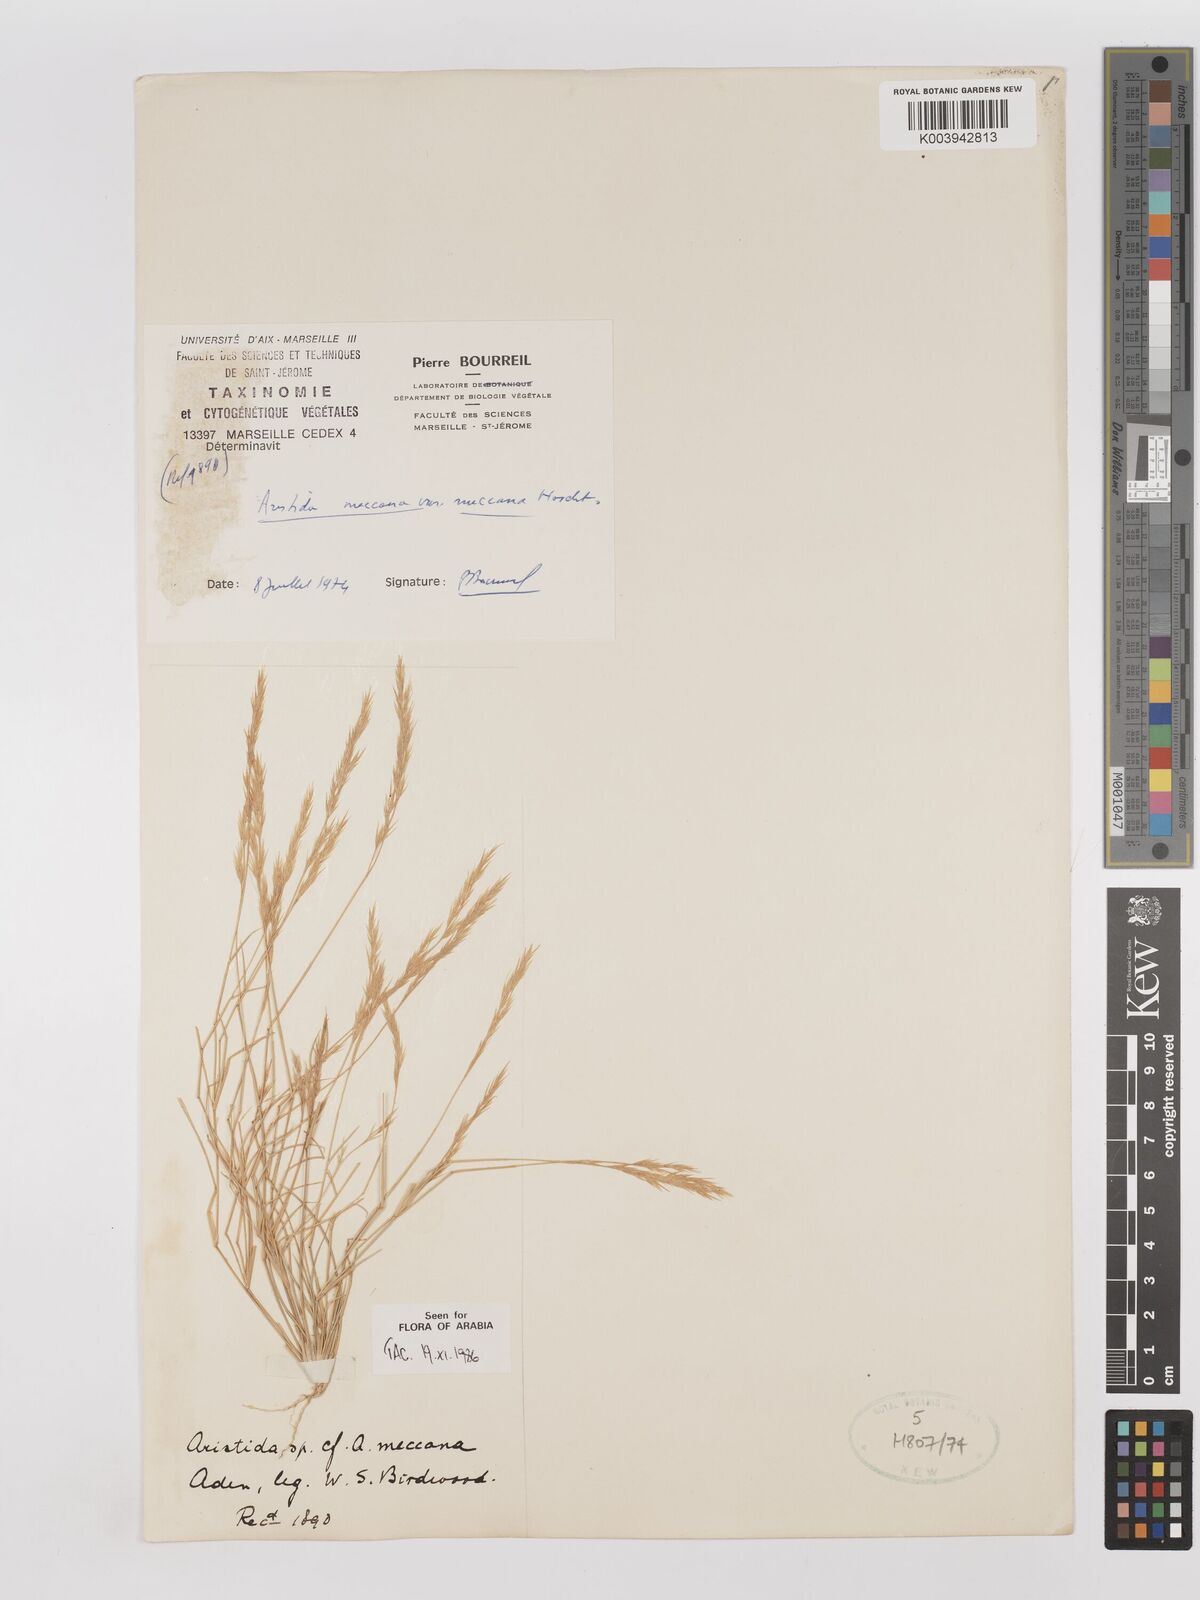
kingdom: Plantae
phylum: Tracheophyta
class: Liliopsida
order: Poales
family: Poaceae
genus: Aristida
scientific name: Aristida mutabilis
